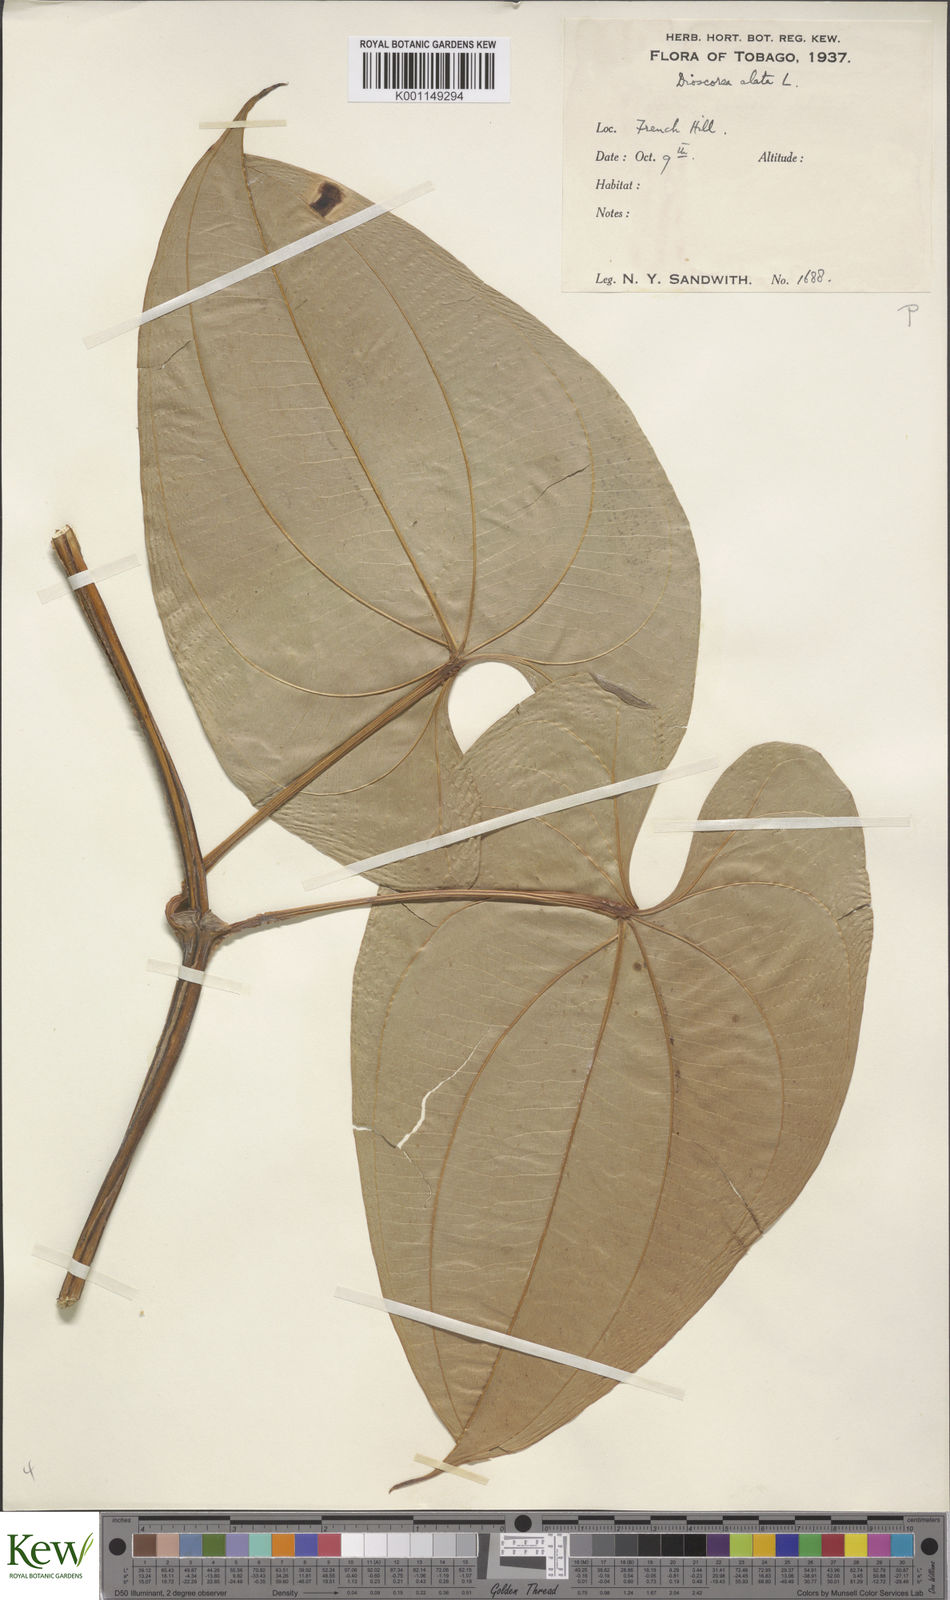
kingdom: Plantae
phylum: Tracheophyta
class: Liliopsida
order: Dioscoreales
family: Dioscoreaceae
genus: Dioscorea
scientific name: Dioscorea alata
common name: Water yam
